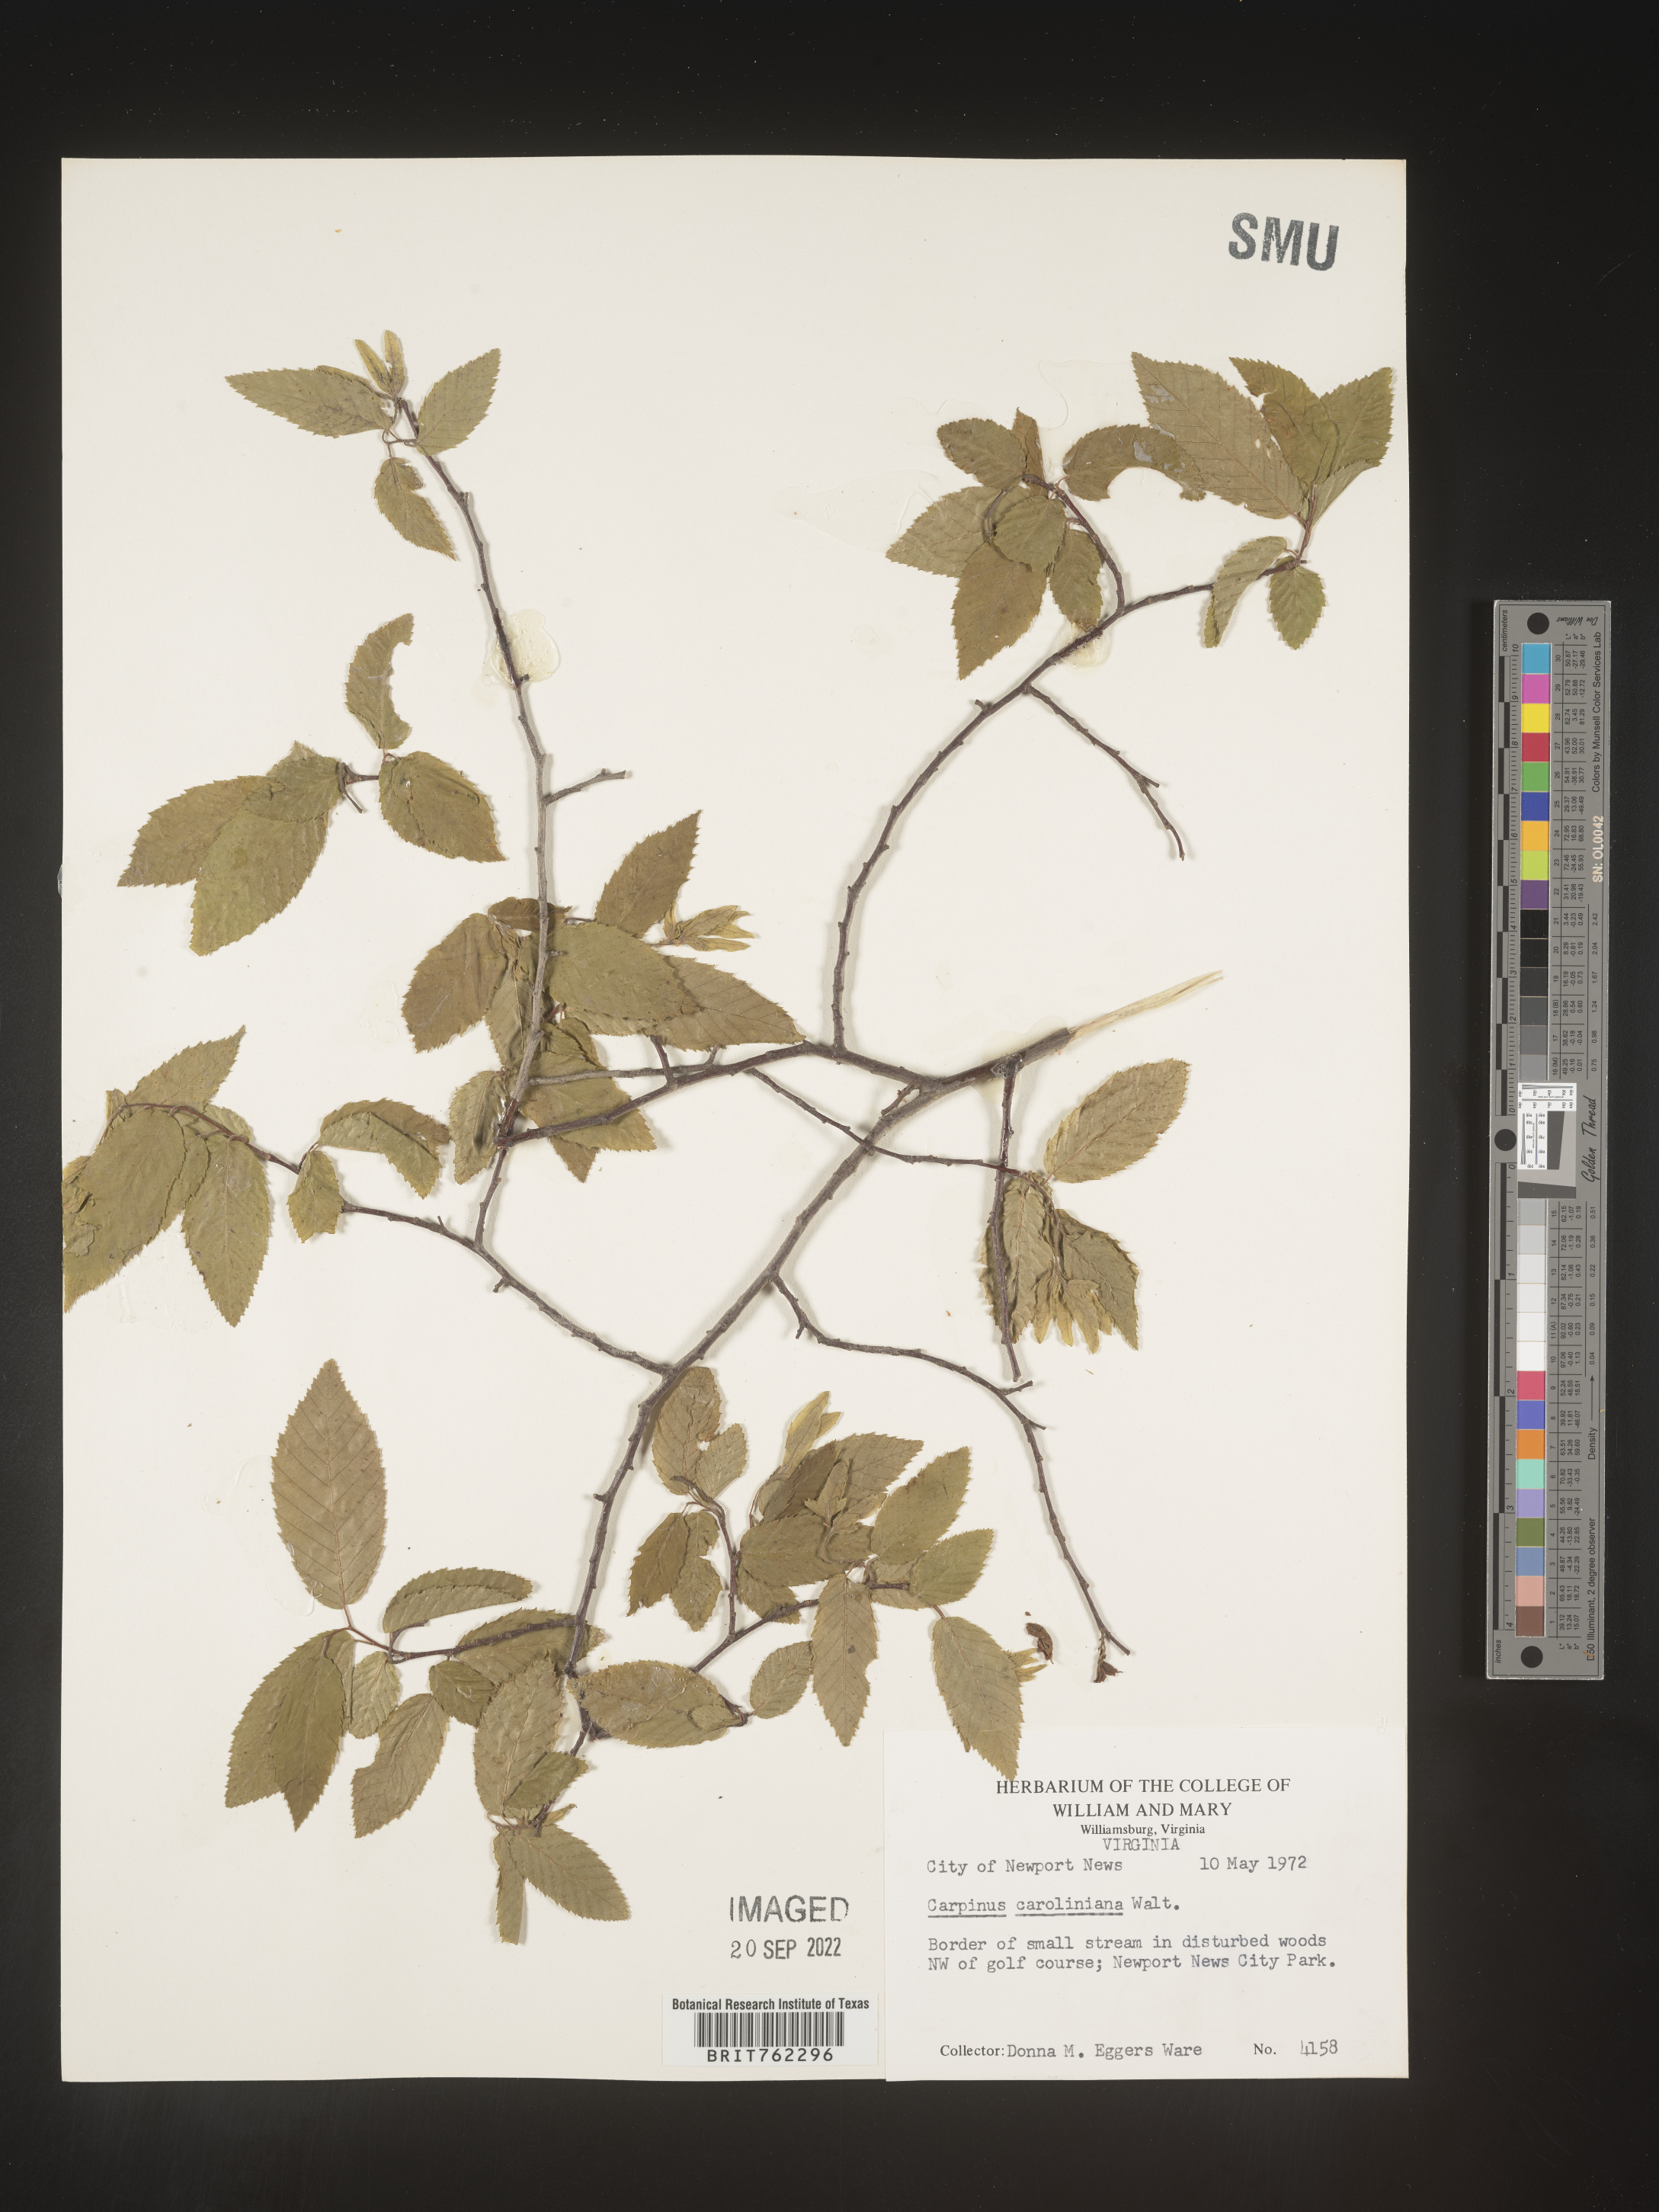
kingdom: Plantae
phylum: Tracheophyta
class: Magnoliopsida
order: Fagales
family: Betulaceae
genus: Carpinus
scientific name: Carpinus caroliniana
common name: American hornbeam
